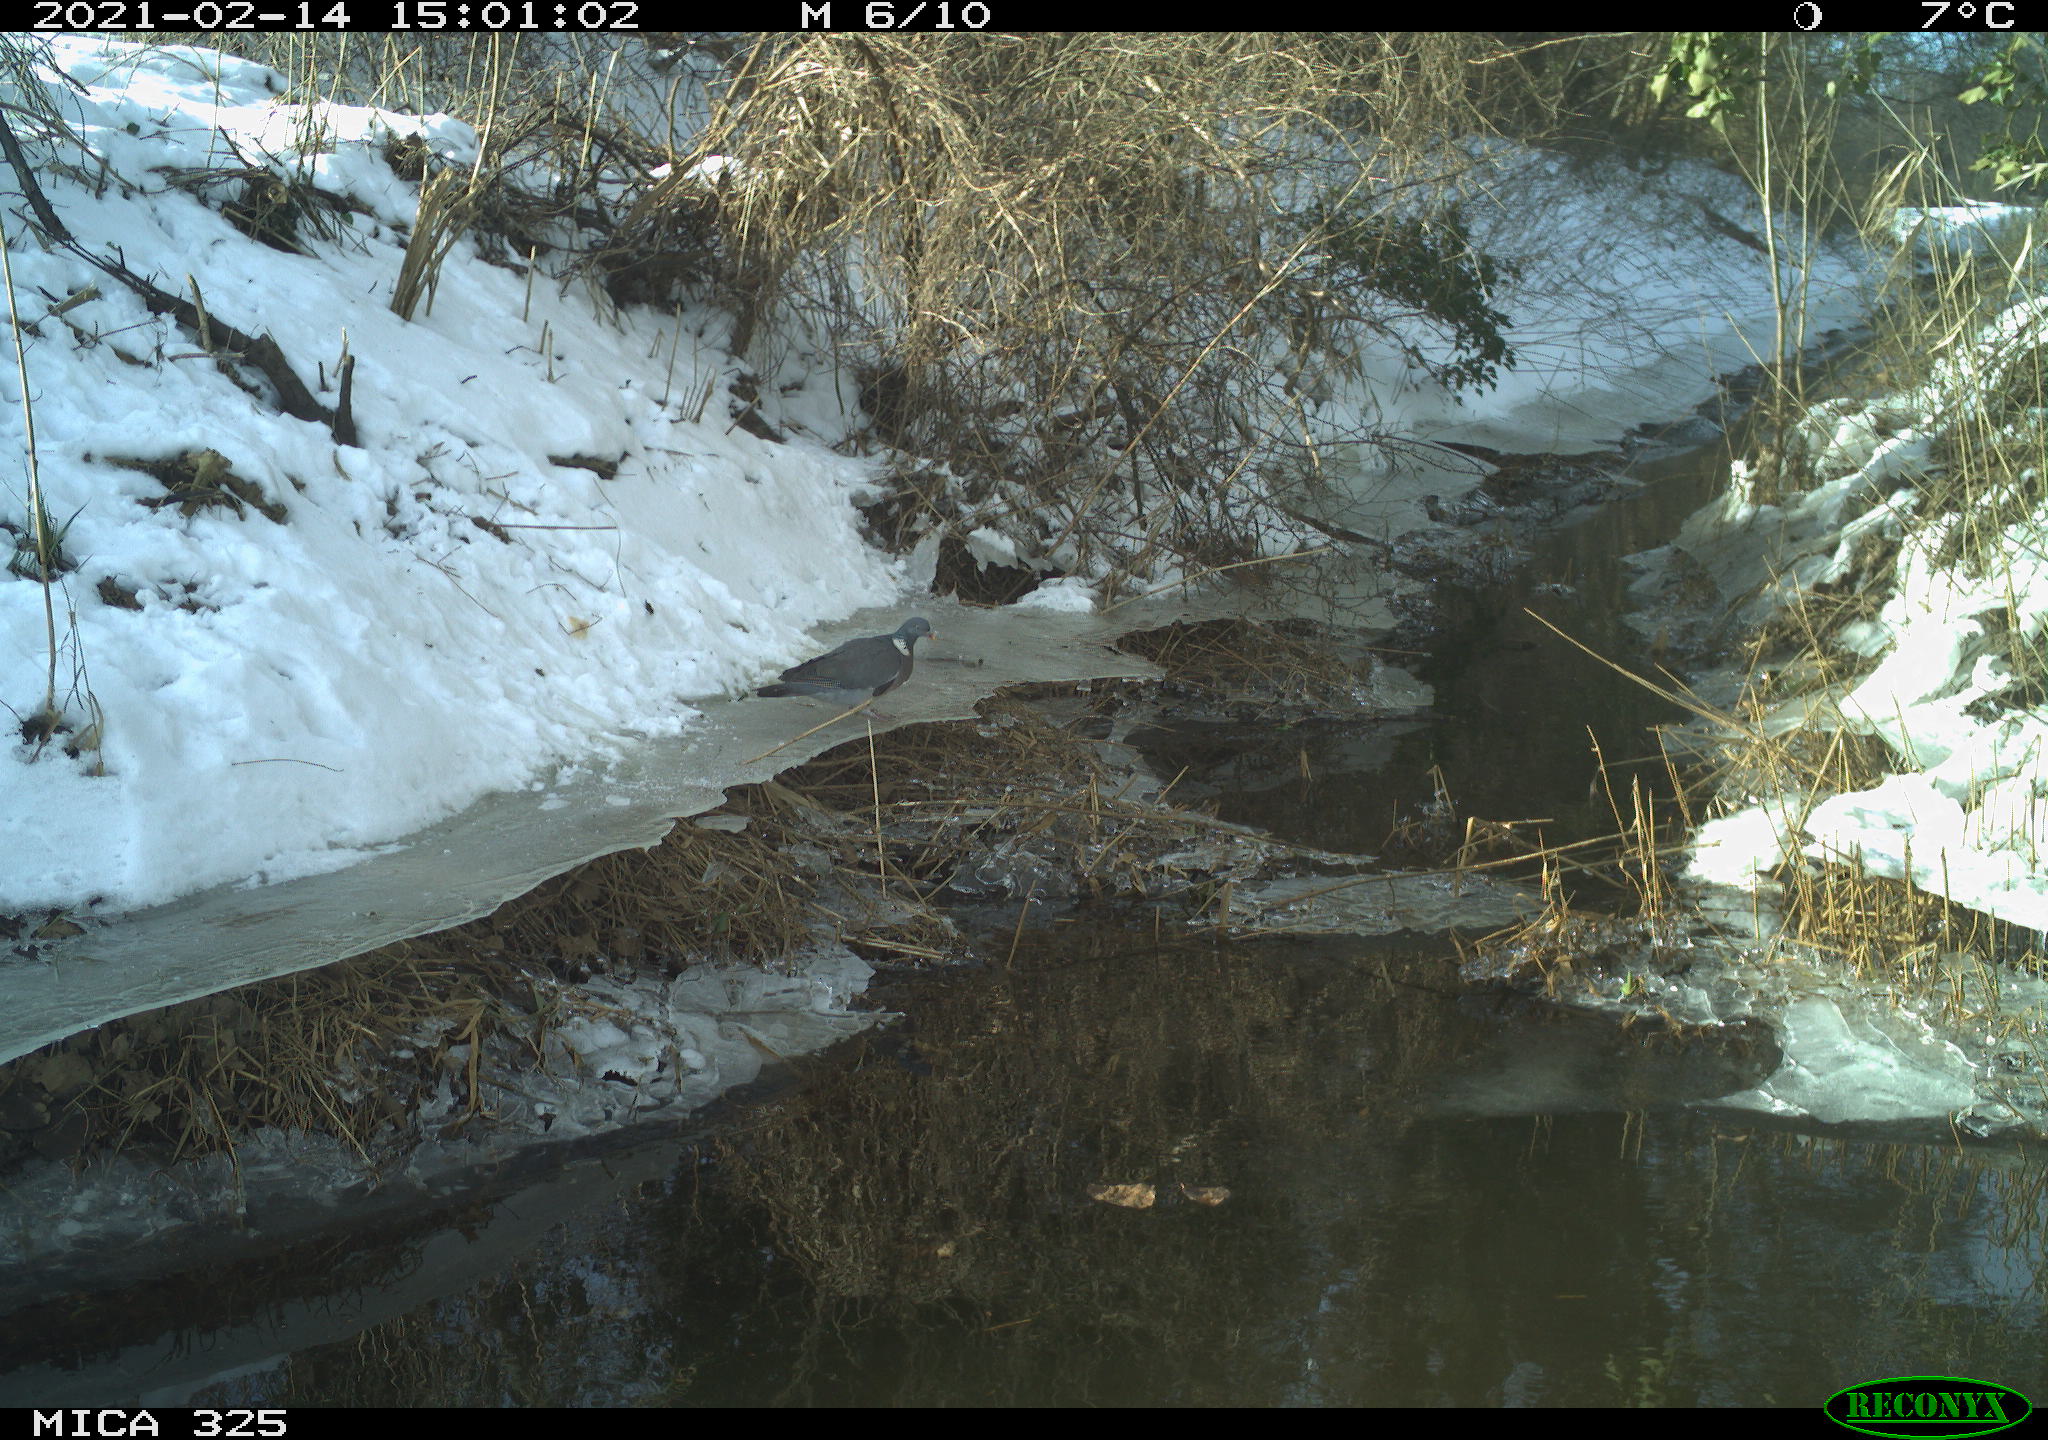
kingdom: Animalia
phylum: Chordata
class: Aves
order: Columbiformes
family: Columbidae
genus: Columba
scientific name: Columba palumbus
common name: Common wood pigeon
